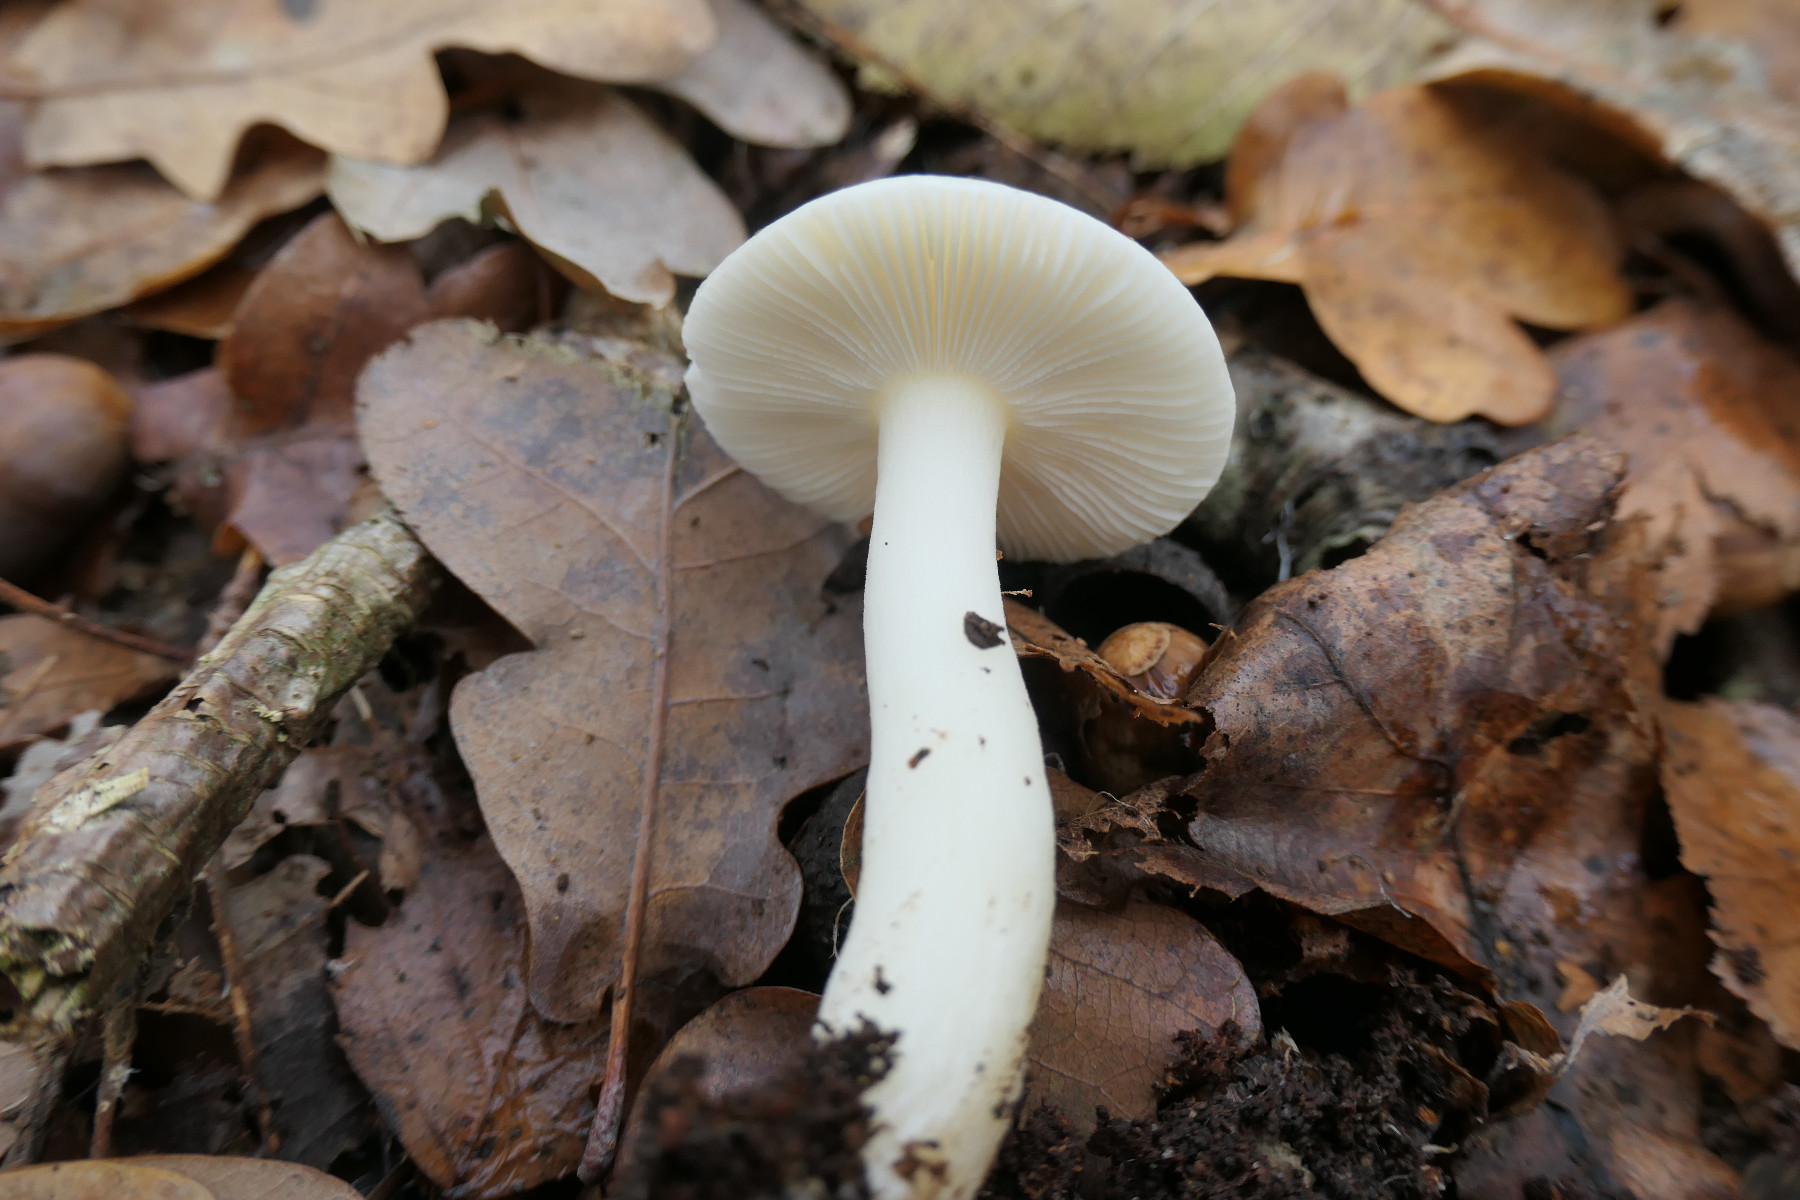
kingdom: Fungi
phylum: Basidiomycota
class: Agaricomycetes
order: Russulales
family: Russulaceae
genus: Russula
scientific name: Russula fragilis
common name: Fragile brittlegill
